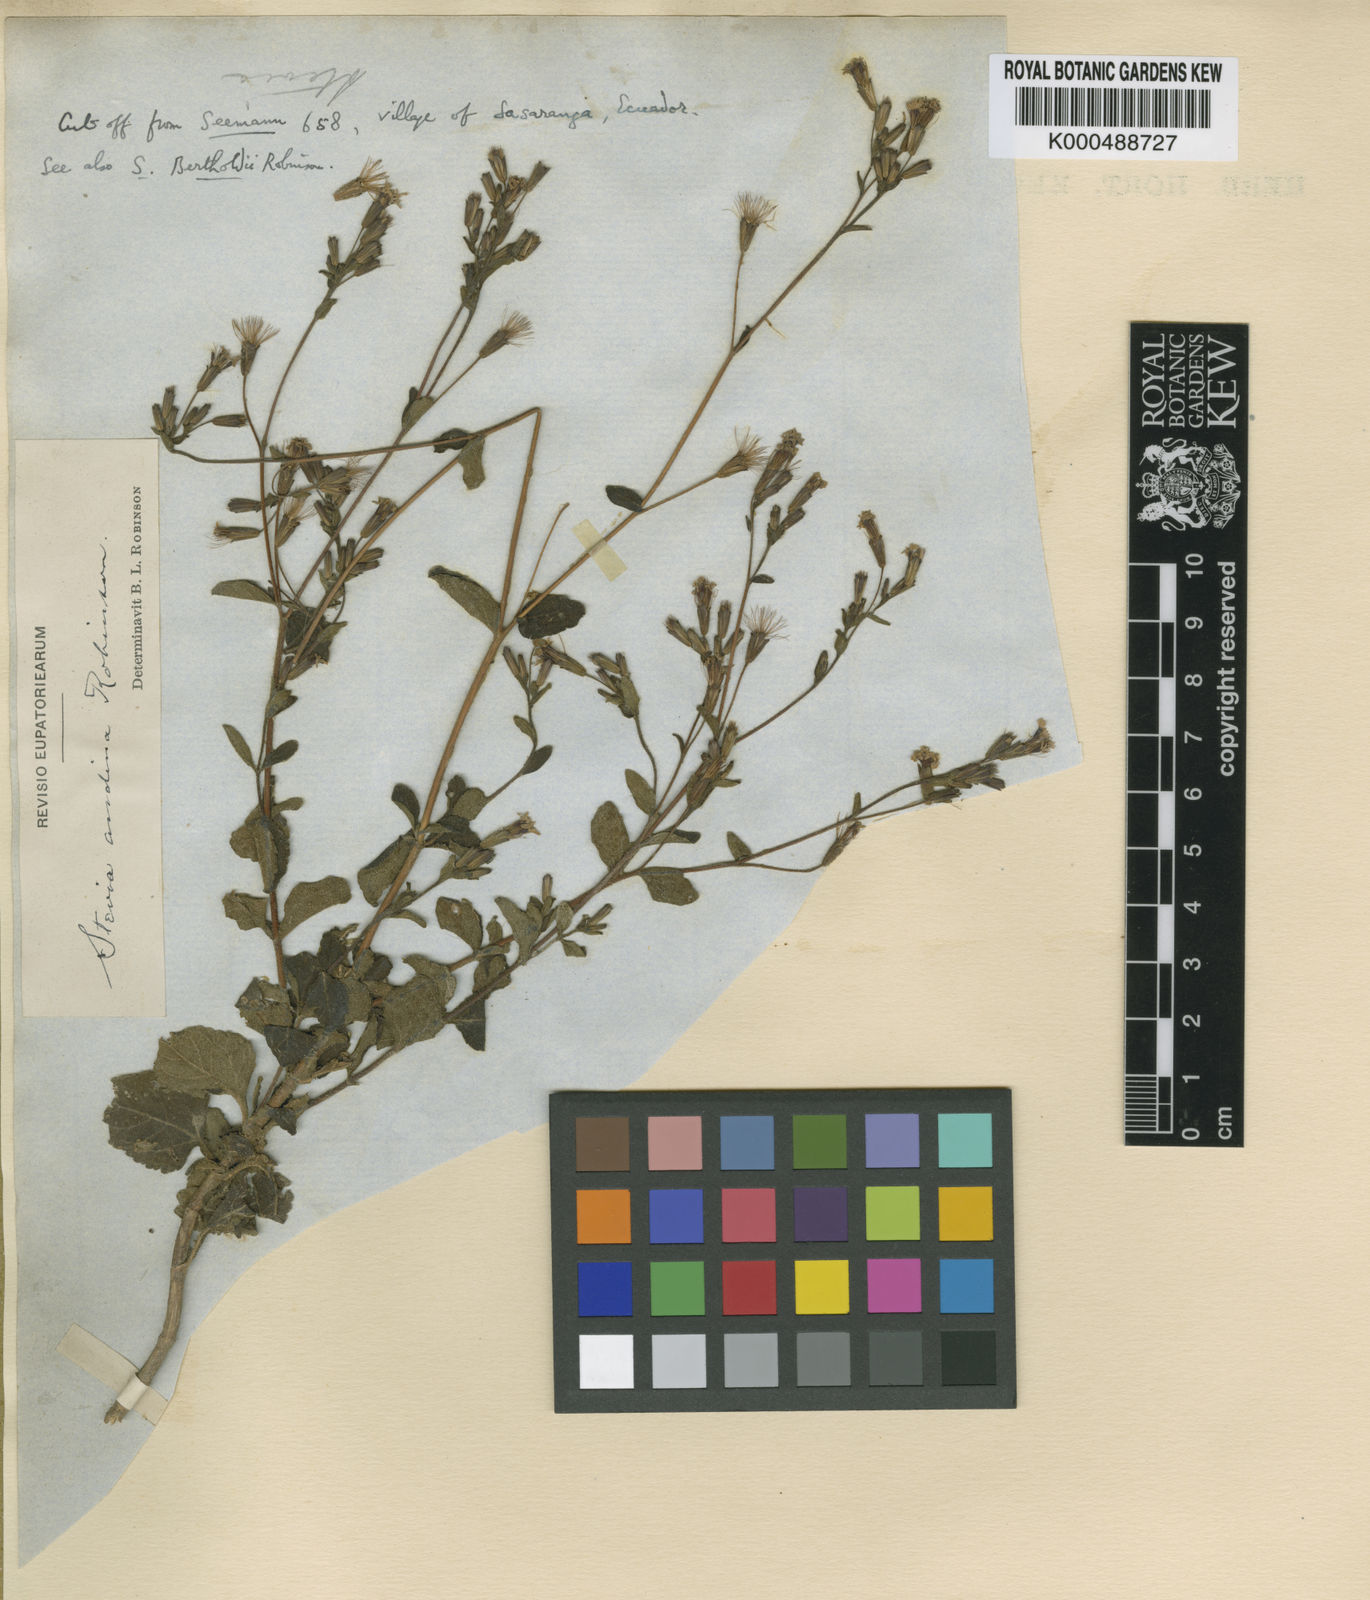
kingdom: Plantae
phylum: Tracheophyta
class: Magnoliopsida
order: Asterales
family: Asteraceae
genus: Stevia
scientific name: Stevia andina
